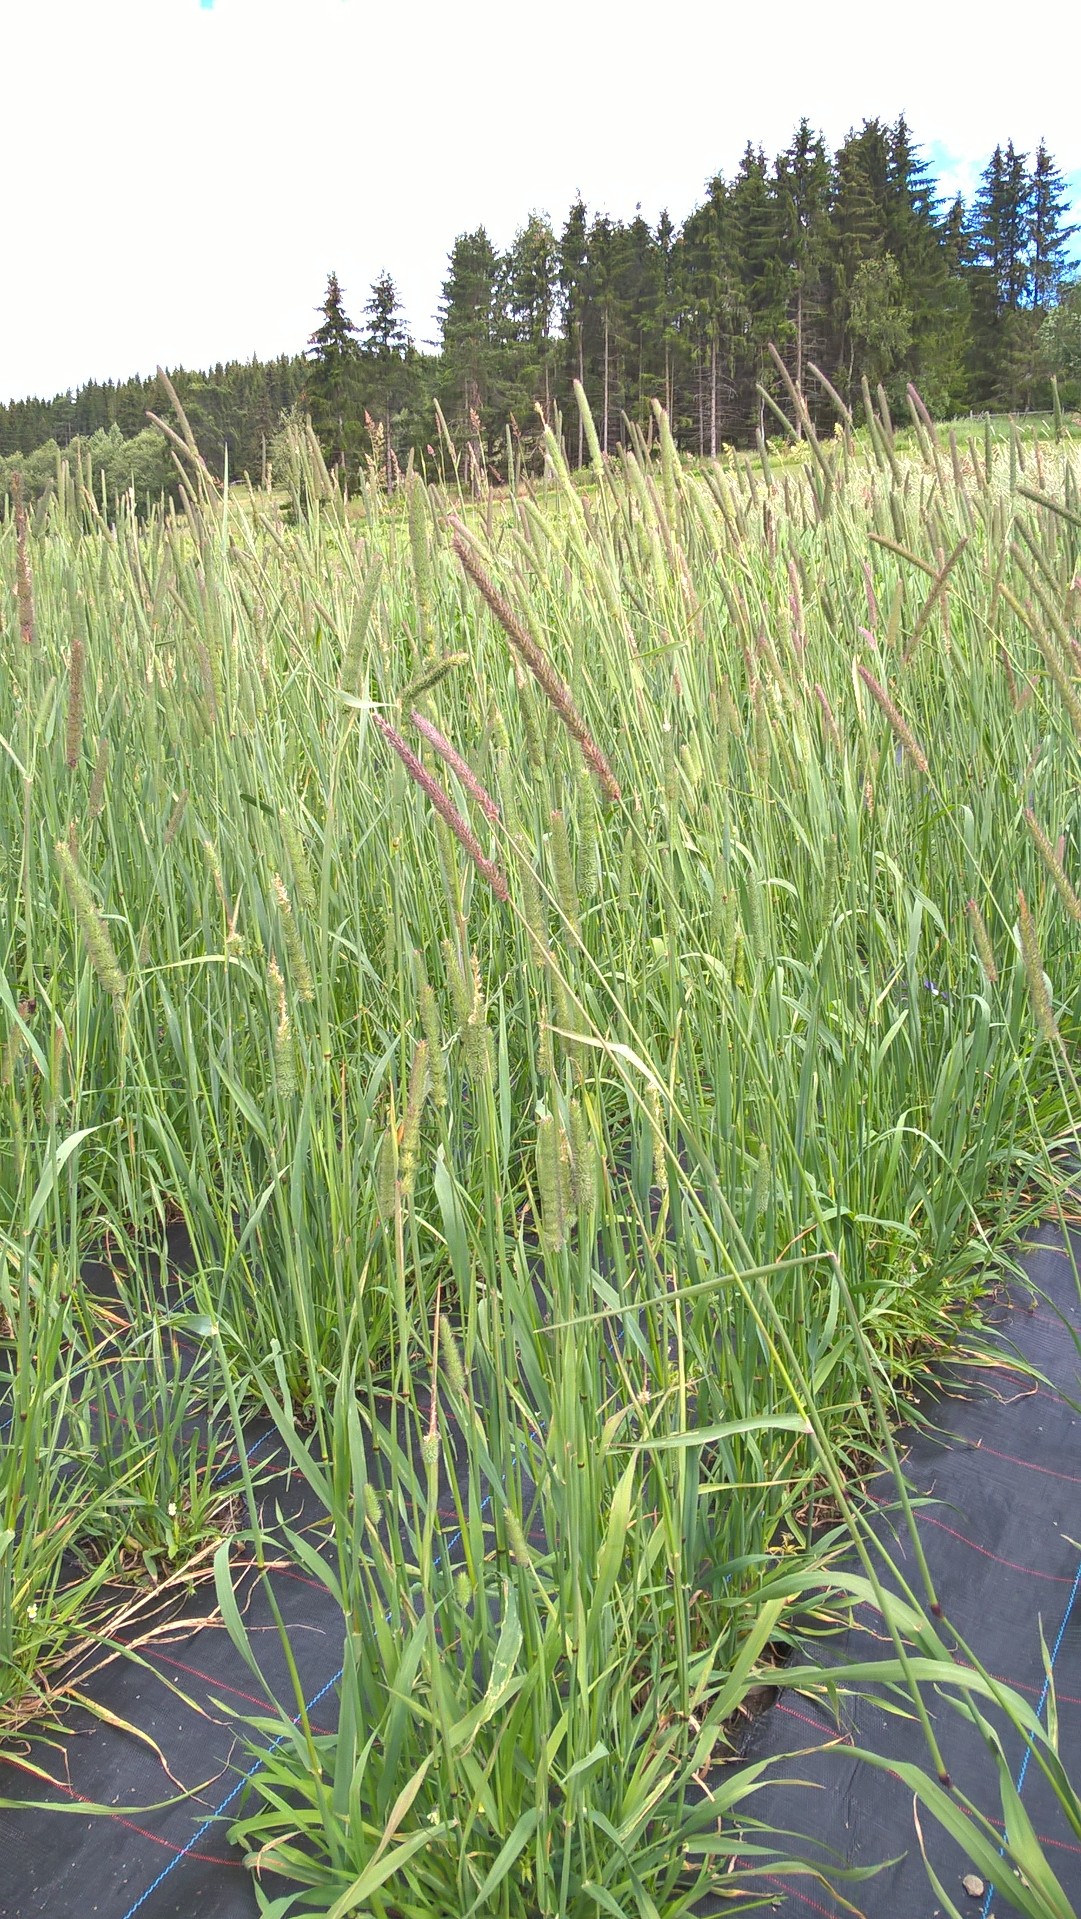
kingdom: Plantae
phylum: Tracheophyta
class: Liliopsida
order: Poales
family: Poaceae
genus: Phleum
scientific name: Phleum pratense
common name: Timothy grass
